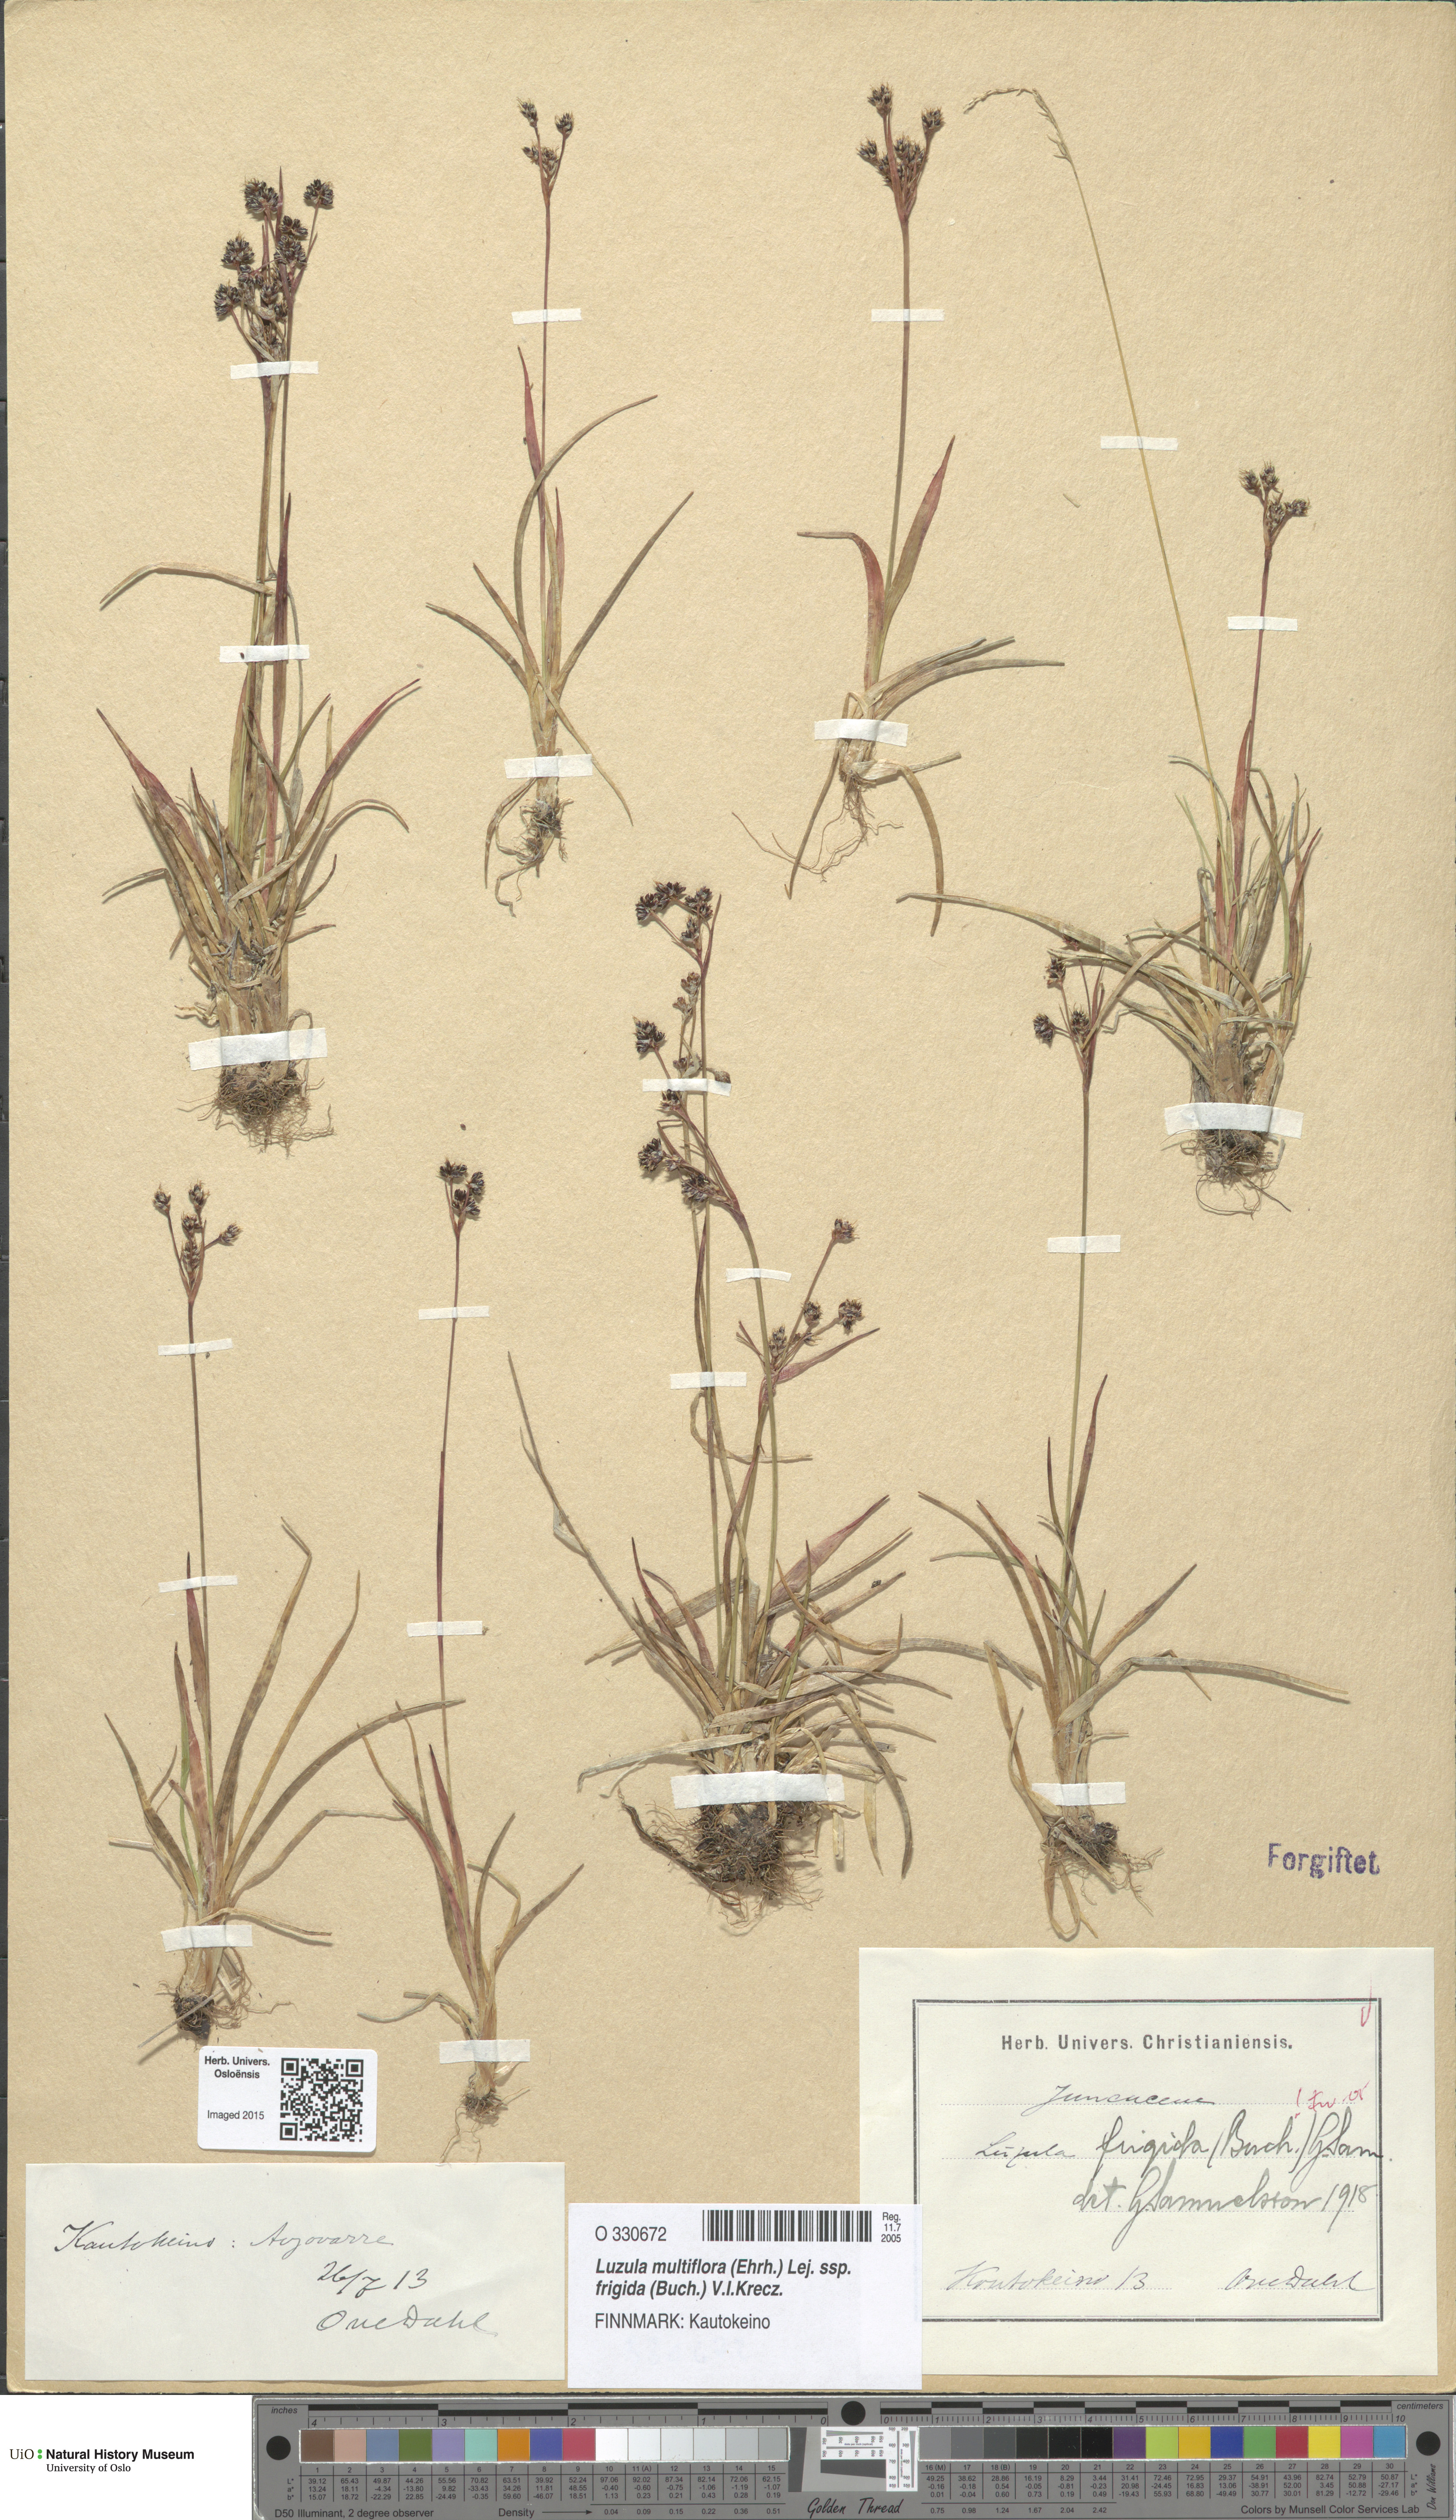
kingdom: Plantae
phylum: Tracheophyta
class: Liliopsida
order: Poales
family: Juncaceae
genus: Luzula
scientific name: Luzula multiflora
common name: Heath wood-rush
